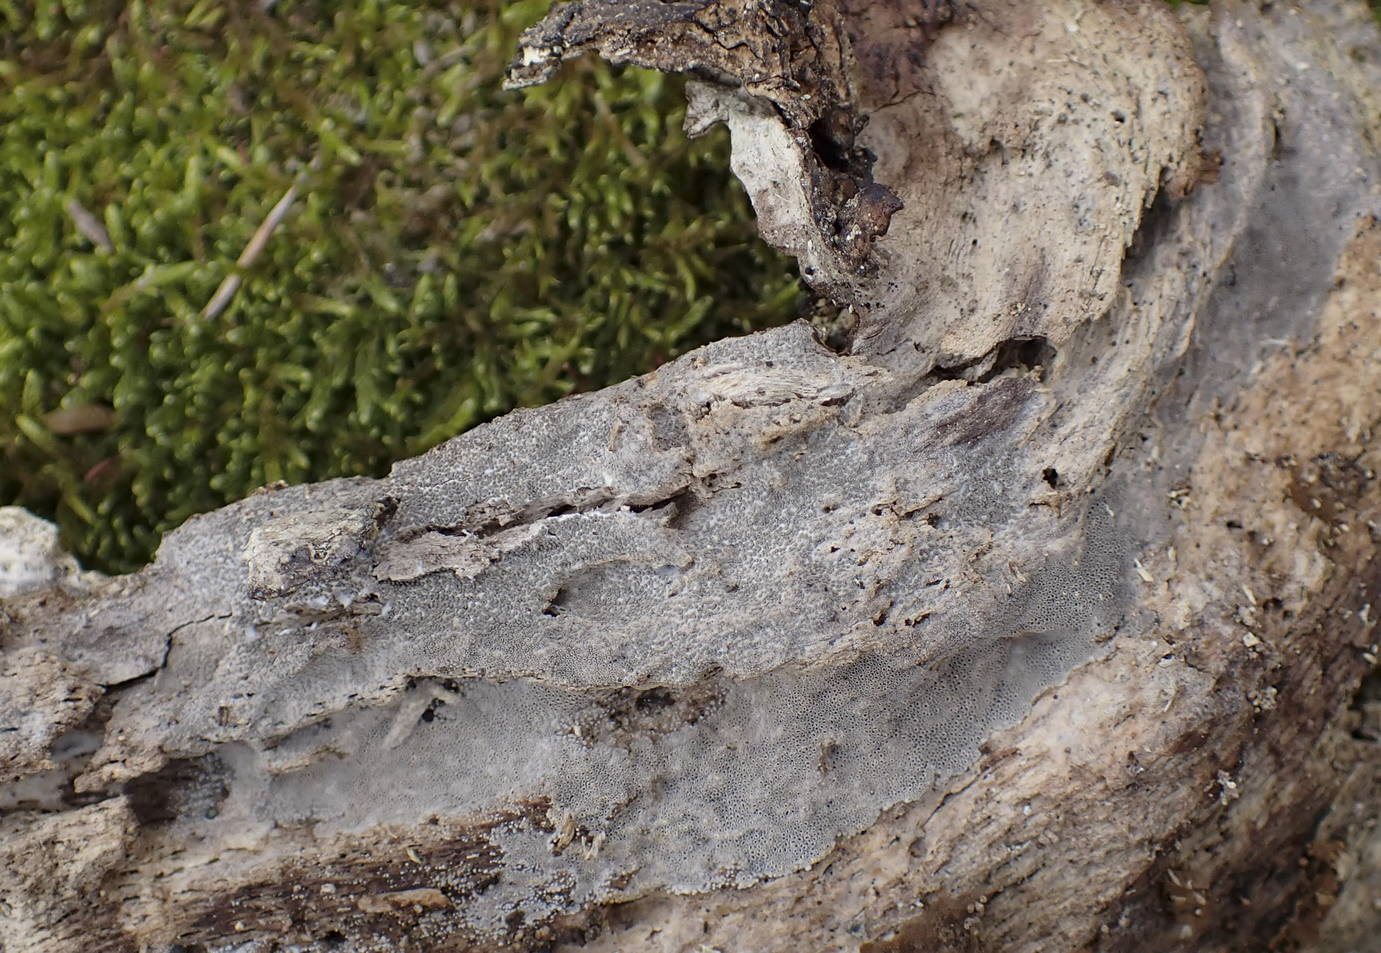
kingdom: Fungi
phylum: Basidiomycota
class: Agaricomycetes
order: Agaricales
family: Pleurotaceae
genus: Resupinatus
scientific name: Resupinatus poriaeformis
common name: tæpperør
